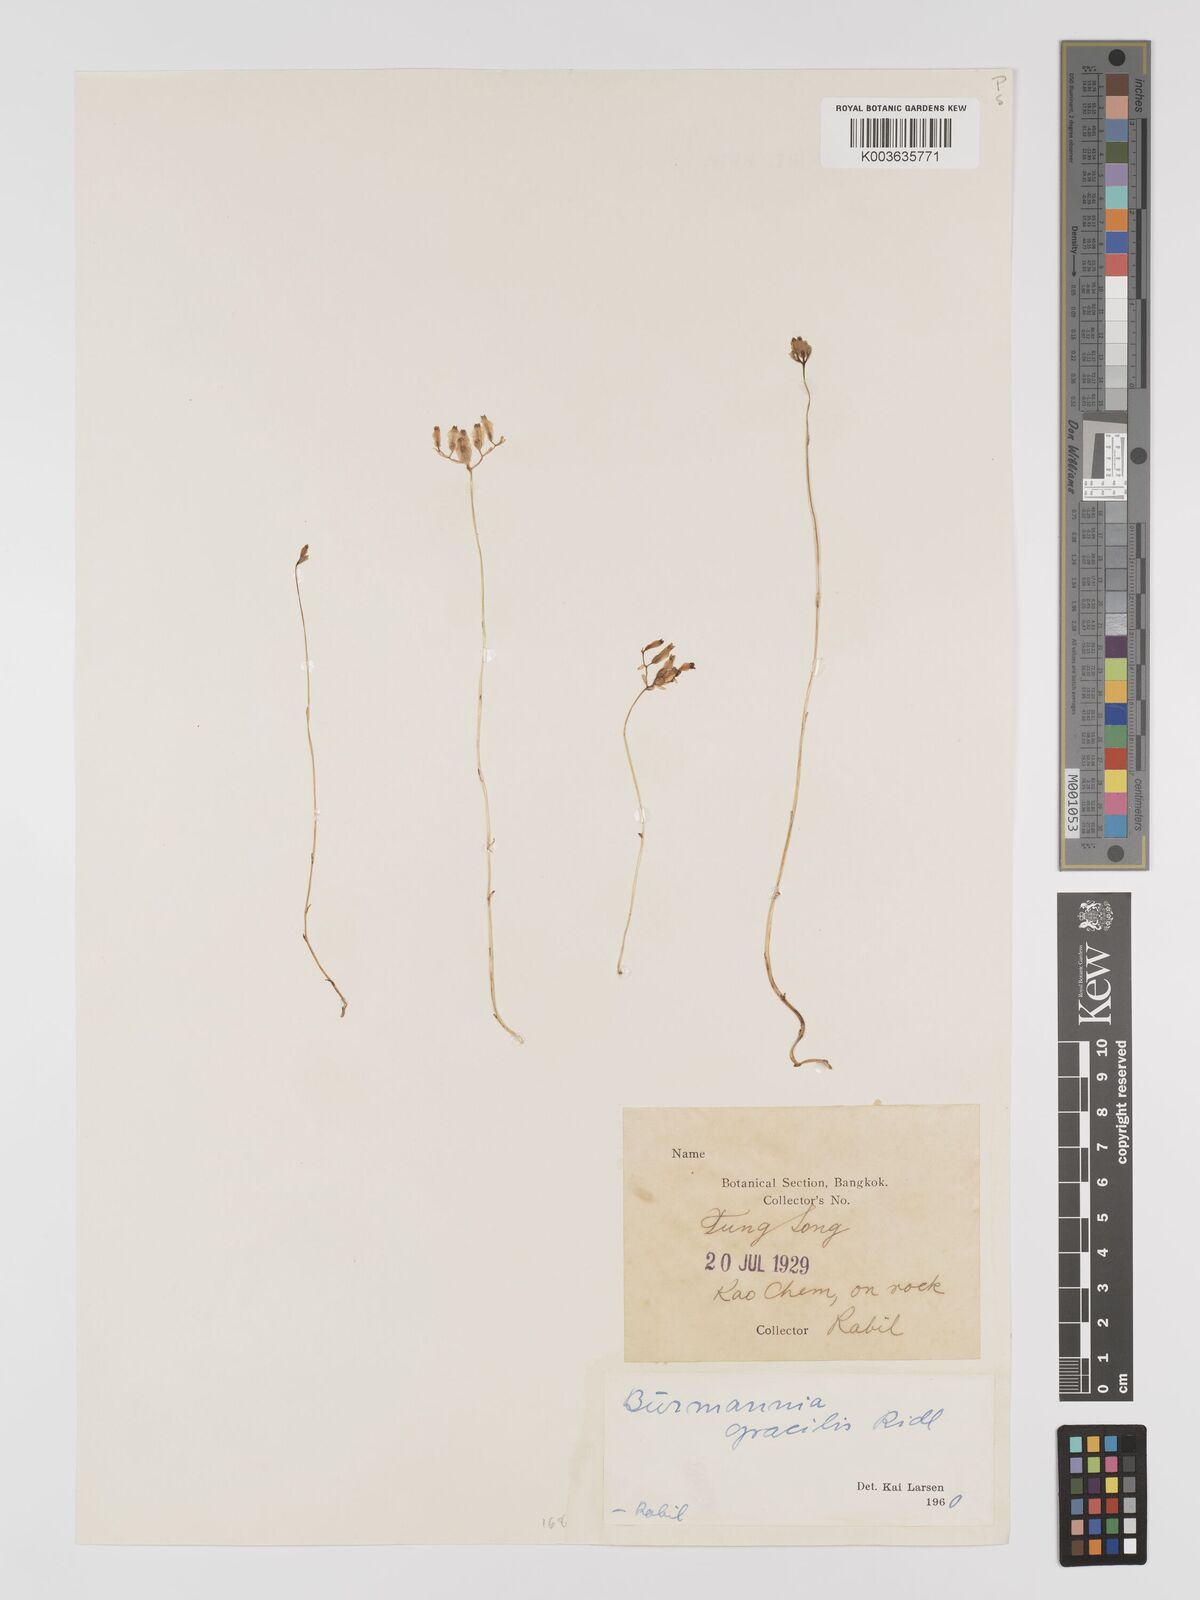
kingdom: Plantae
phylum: Tracheophyta
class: Liliopsida
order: Dioscoreales
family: Burmanniaceae
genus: Burmannia
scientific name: Burmannia gracilis
